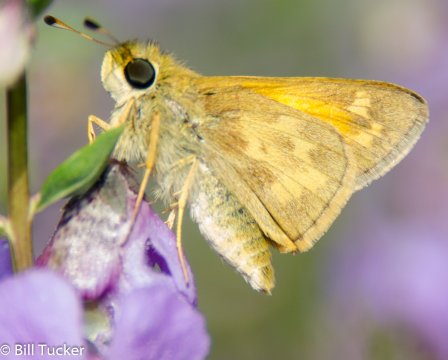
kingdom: Animalia
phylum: Arthropoda
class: Insecta
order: Lepidoptera
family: Hesperiidae
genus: Atalopedes
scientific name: Atalopedes campestris
